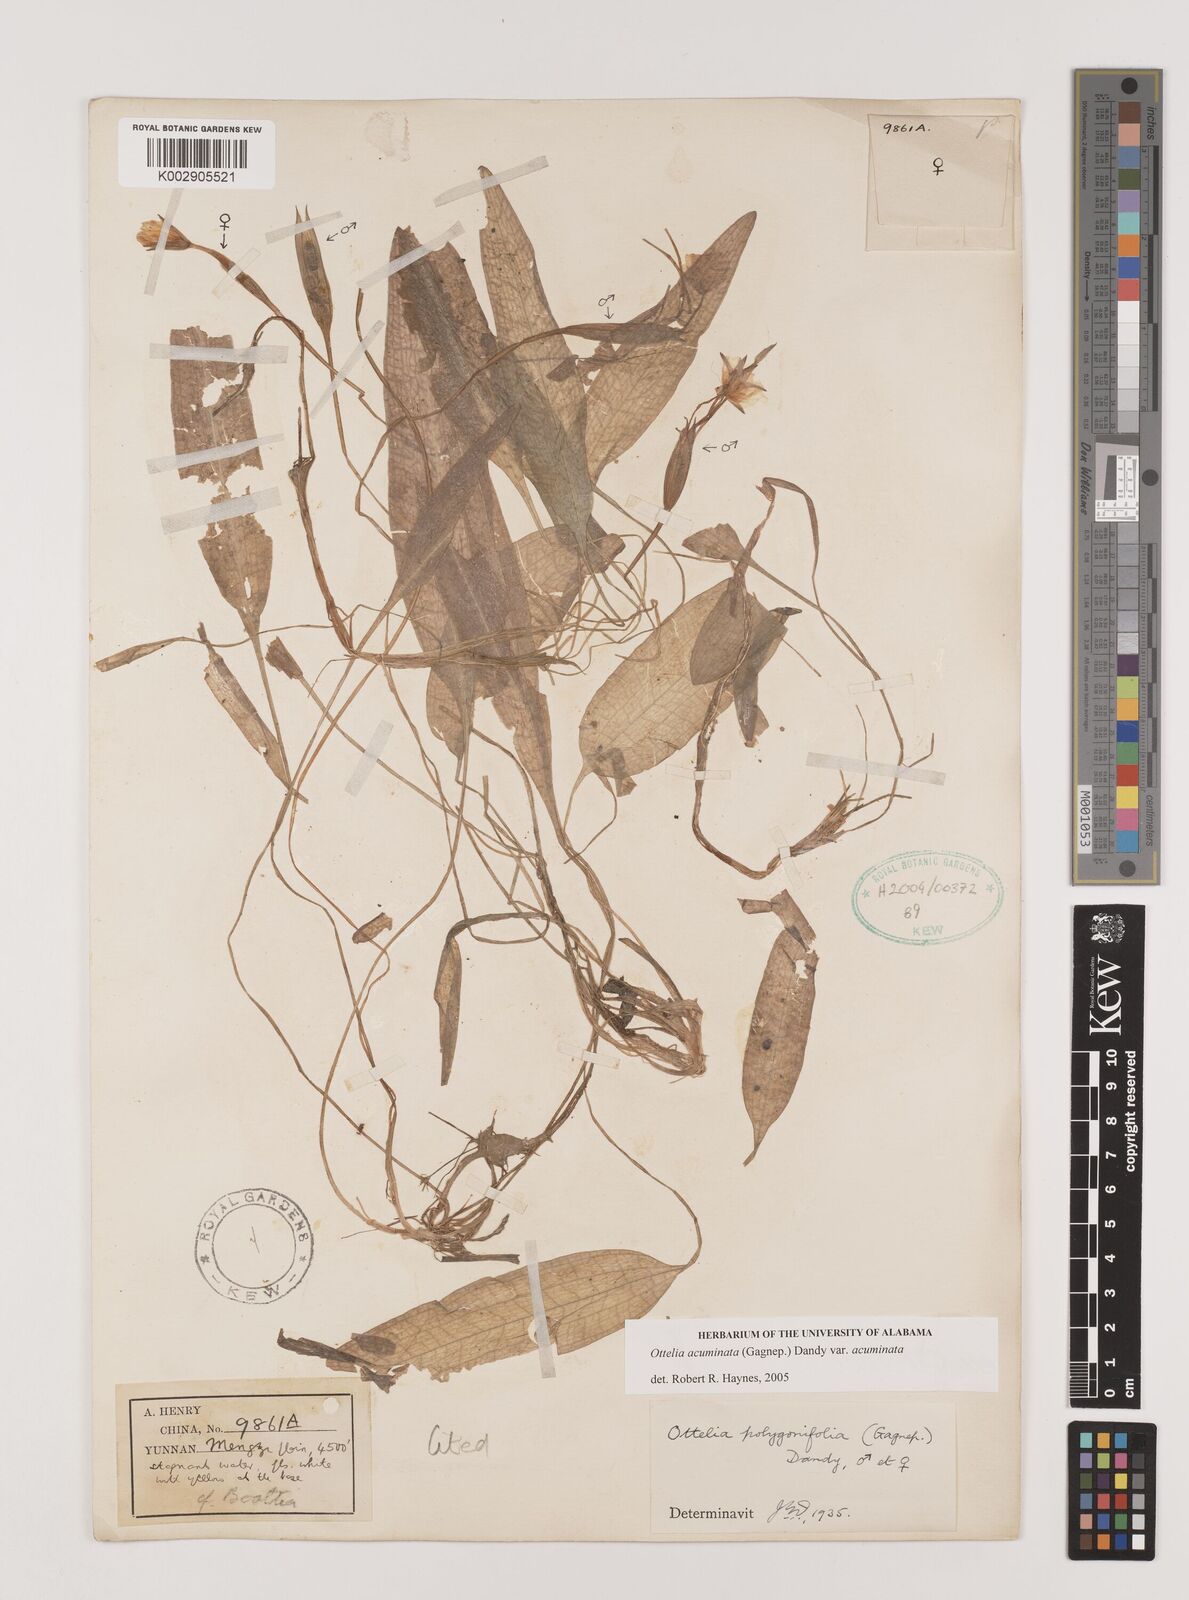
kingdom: Plantae
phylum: Tracheophyta
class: Liliopsida
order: Alismatales
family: Hydrocharitaceae
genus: Ottelia
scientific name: Ottelia acuminata
